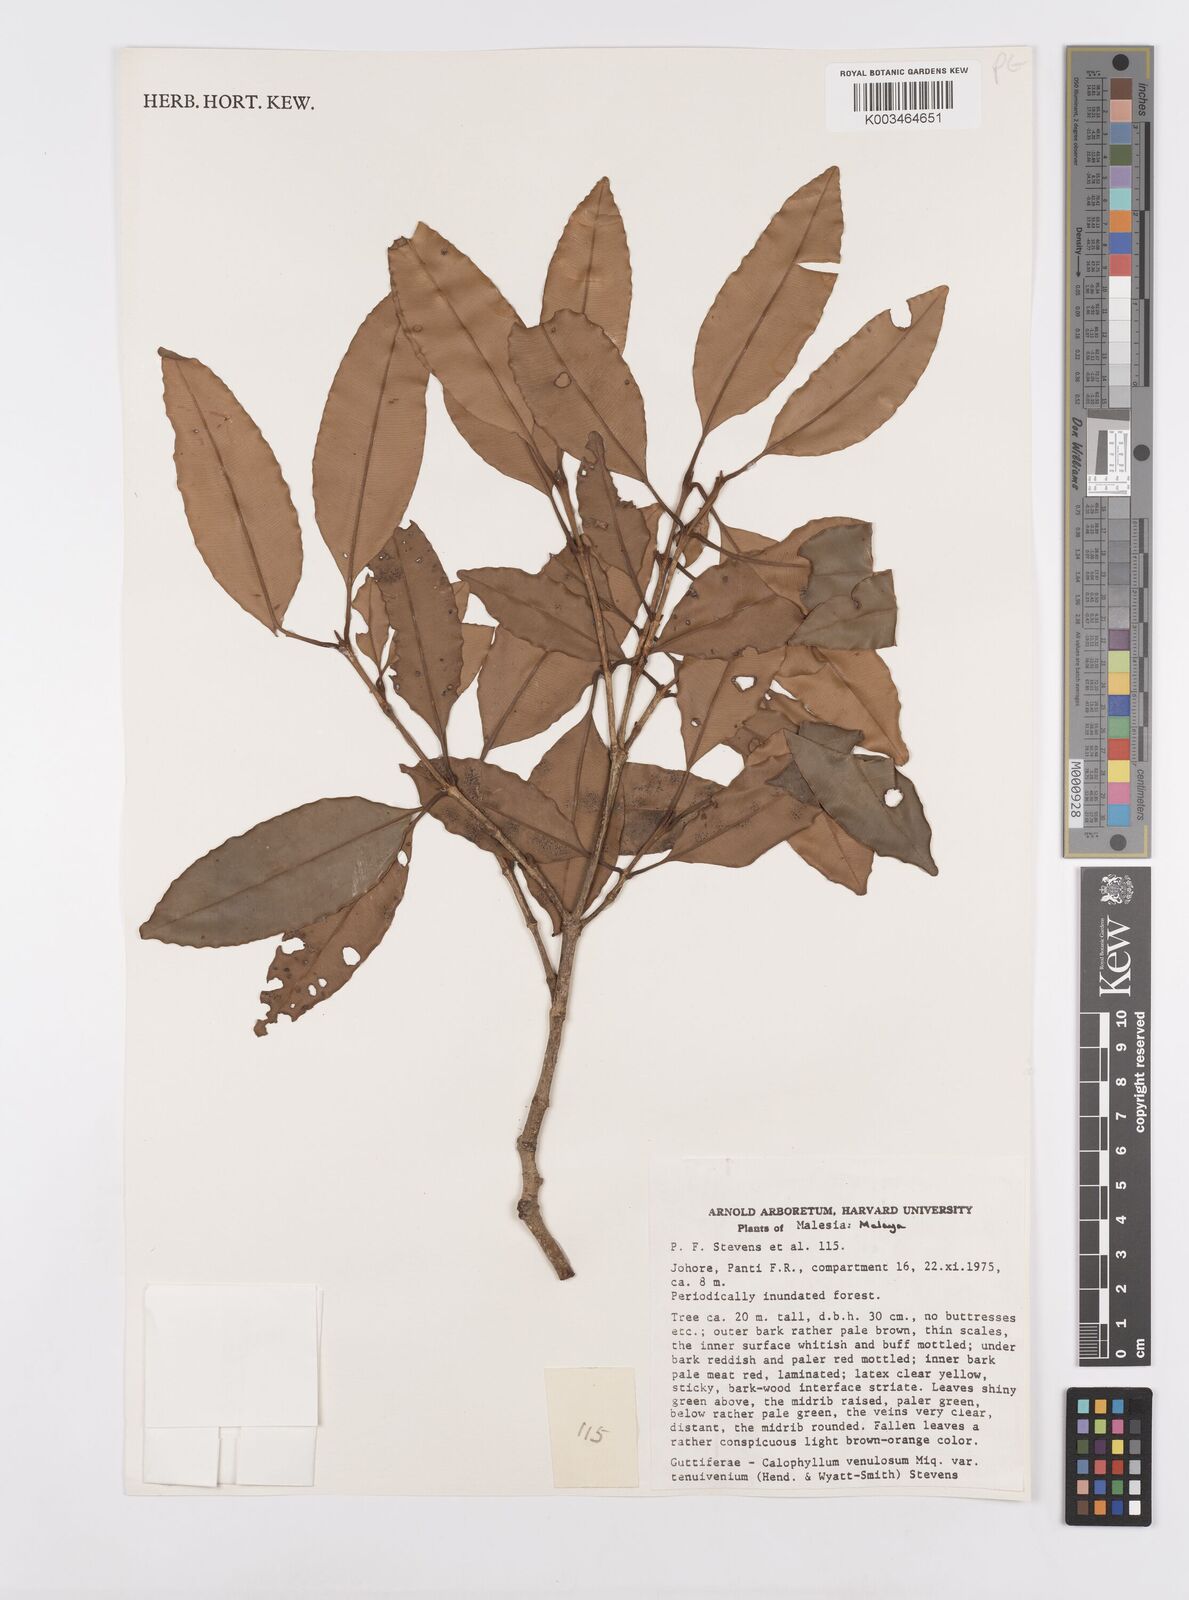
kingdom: Plantae
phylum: Tracheophyta
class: Magnoliopsida
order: Malpighiales
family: Calophyllaceae
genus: Calophyllum
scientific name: Calophyllum venulosum
